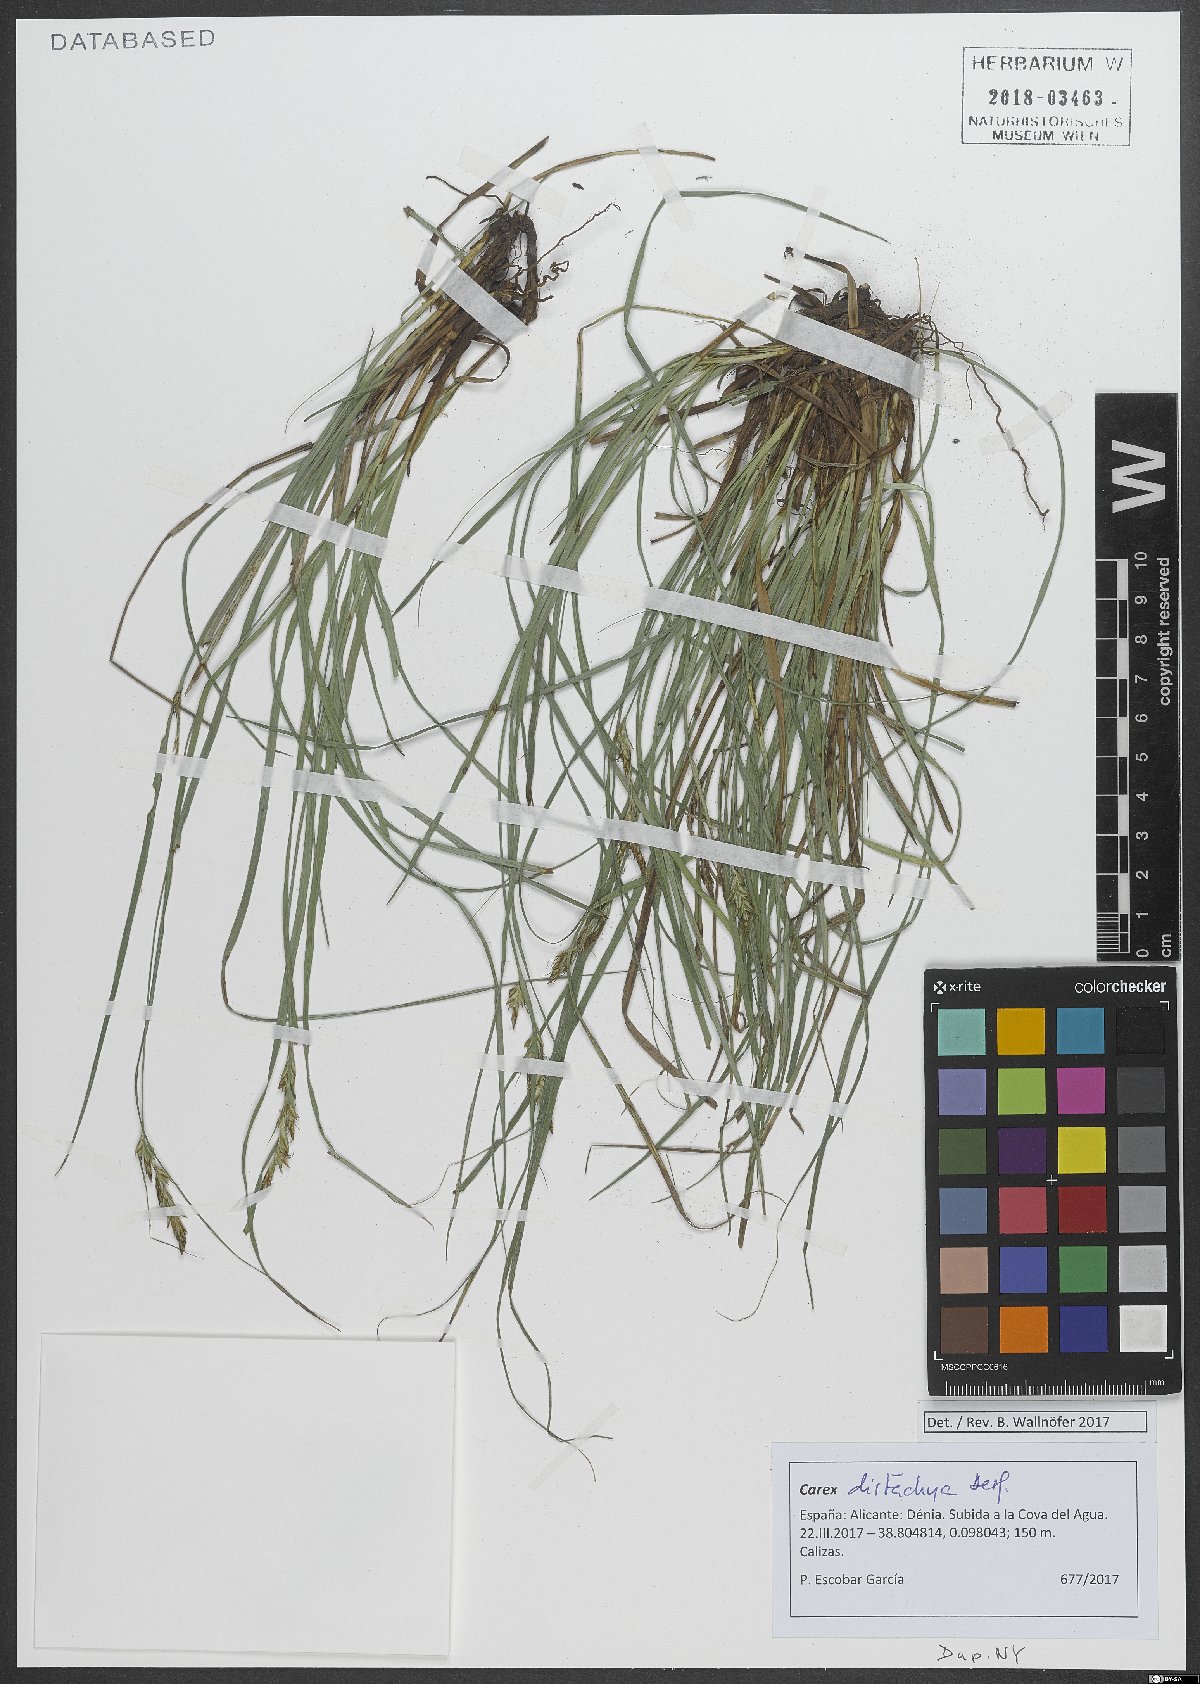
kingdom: Plantae
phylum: Tracheophyta
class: Liliopsida
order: Poales
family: Cyperaceae
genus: Carex
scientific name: Carex distachya
